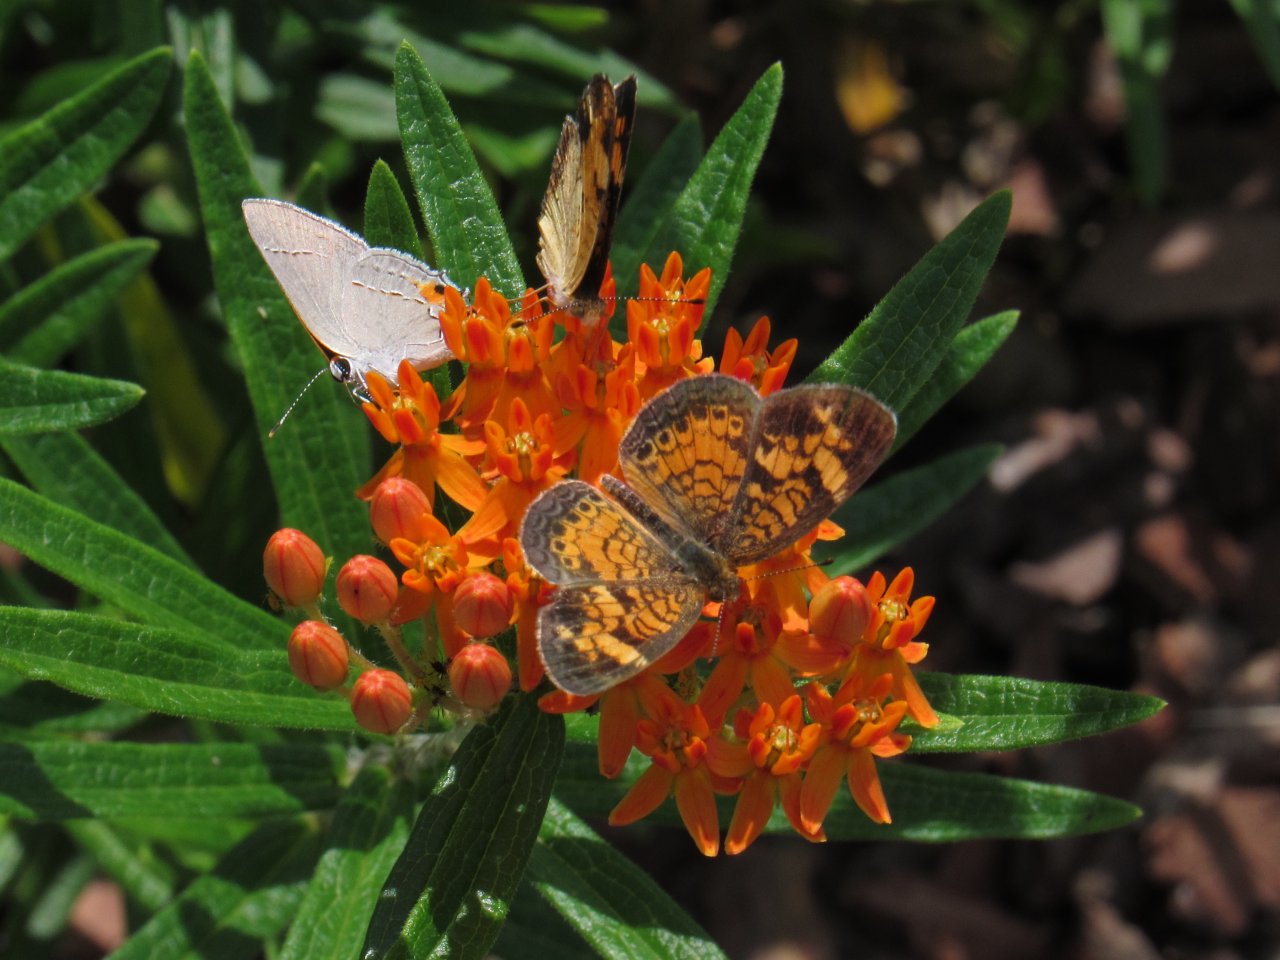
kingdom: Animalia
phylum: Arthropoda
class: Insecta
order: Lepidoptera
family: Nymphalidae
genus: Phyciodes
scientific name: Phyciodes tharos
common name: Pearl Crescent
